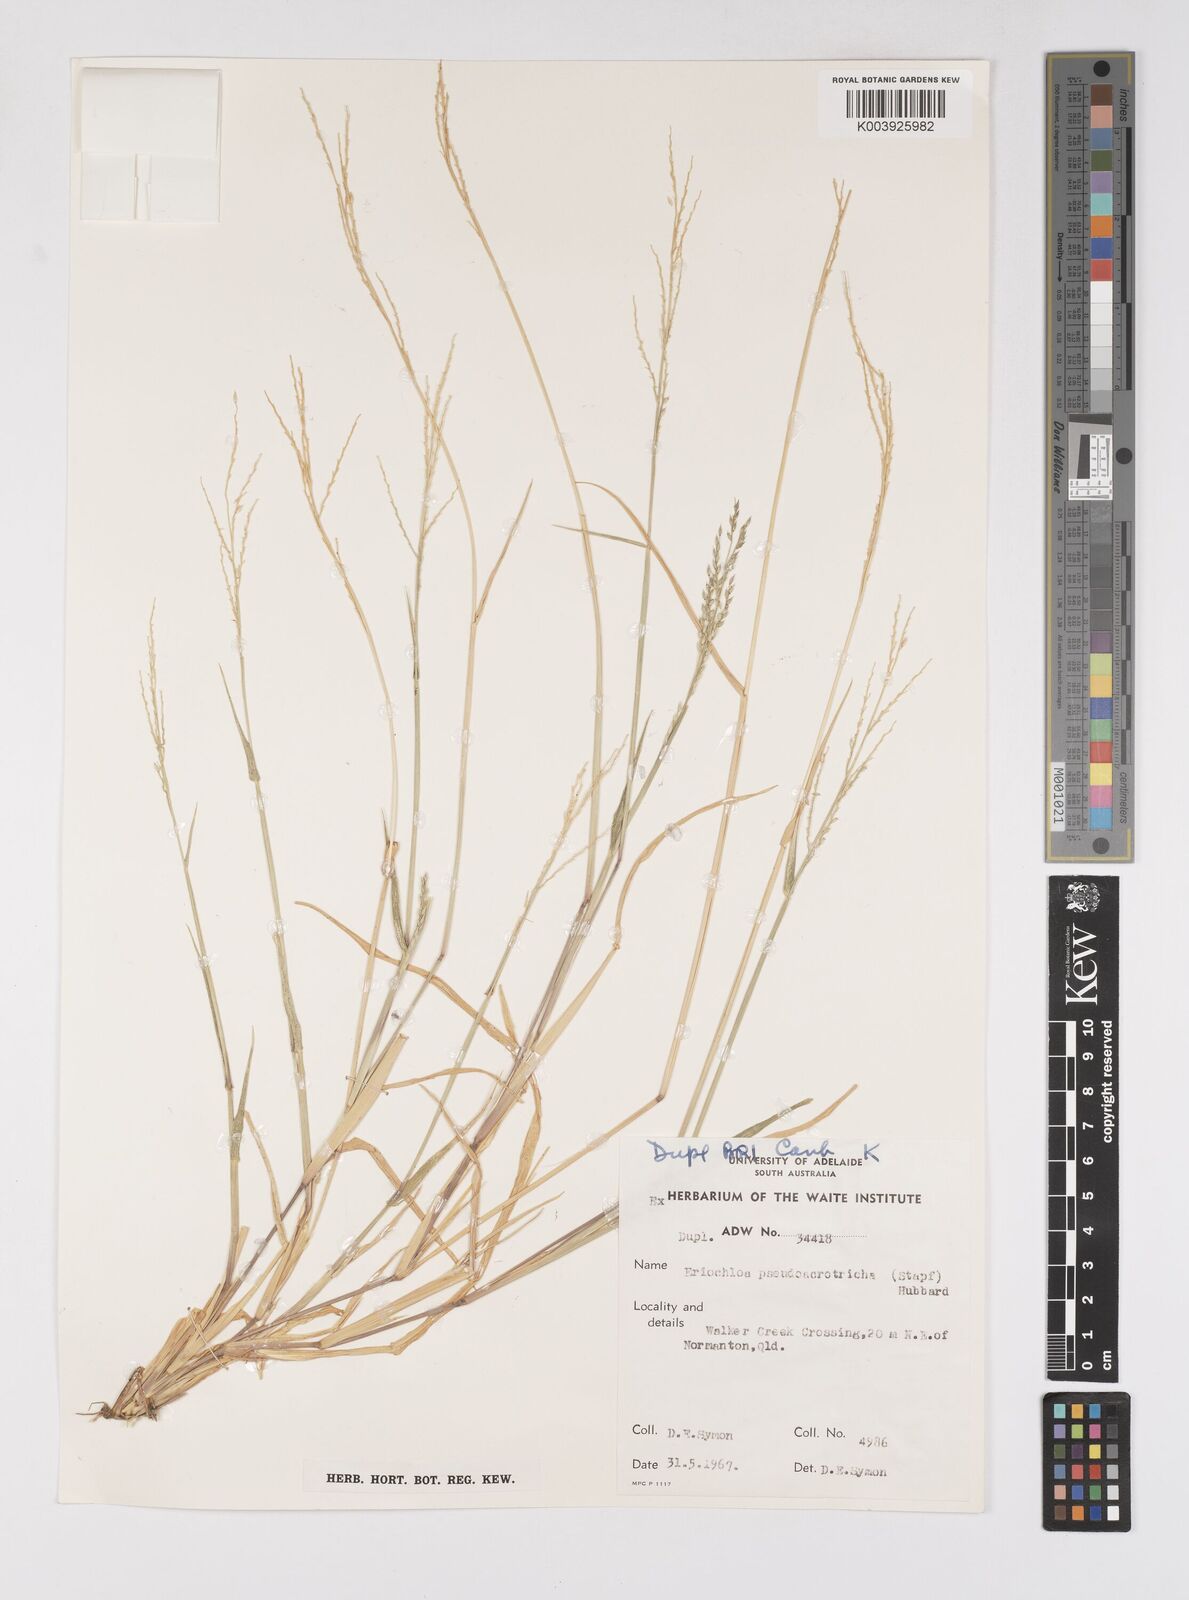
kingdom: Plantae
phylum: Tracheophyta
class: Liliopsida
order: Poales
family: Poaceae
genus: Eriochloa
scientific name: Eriochloa pseudoacrotricha
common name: Perennial cup-grass
